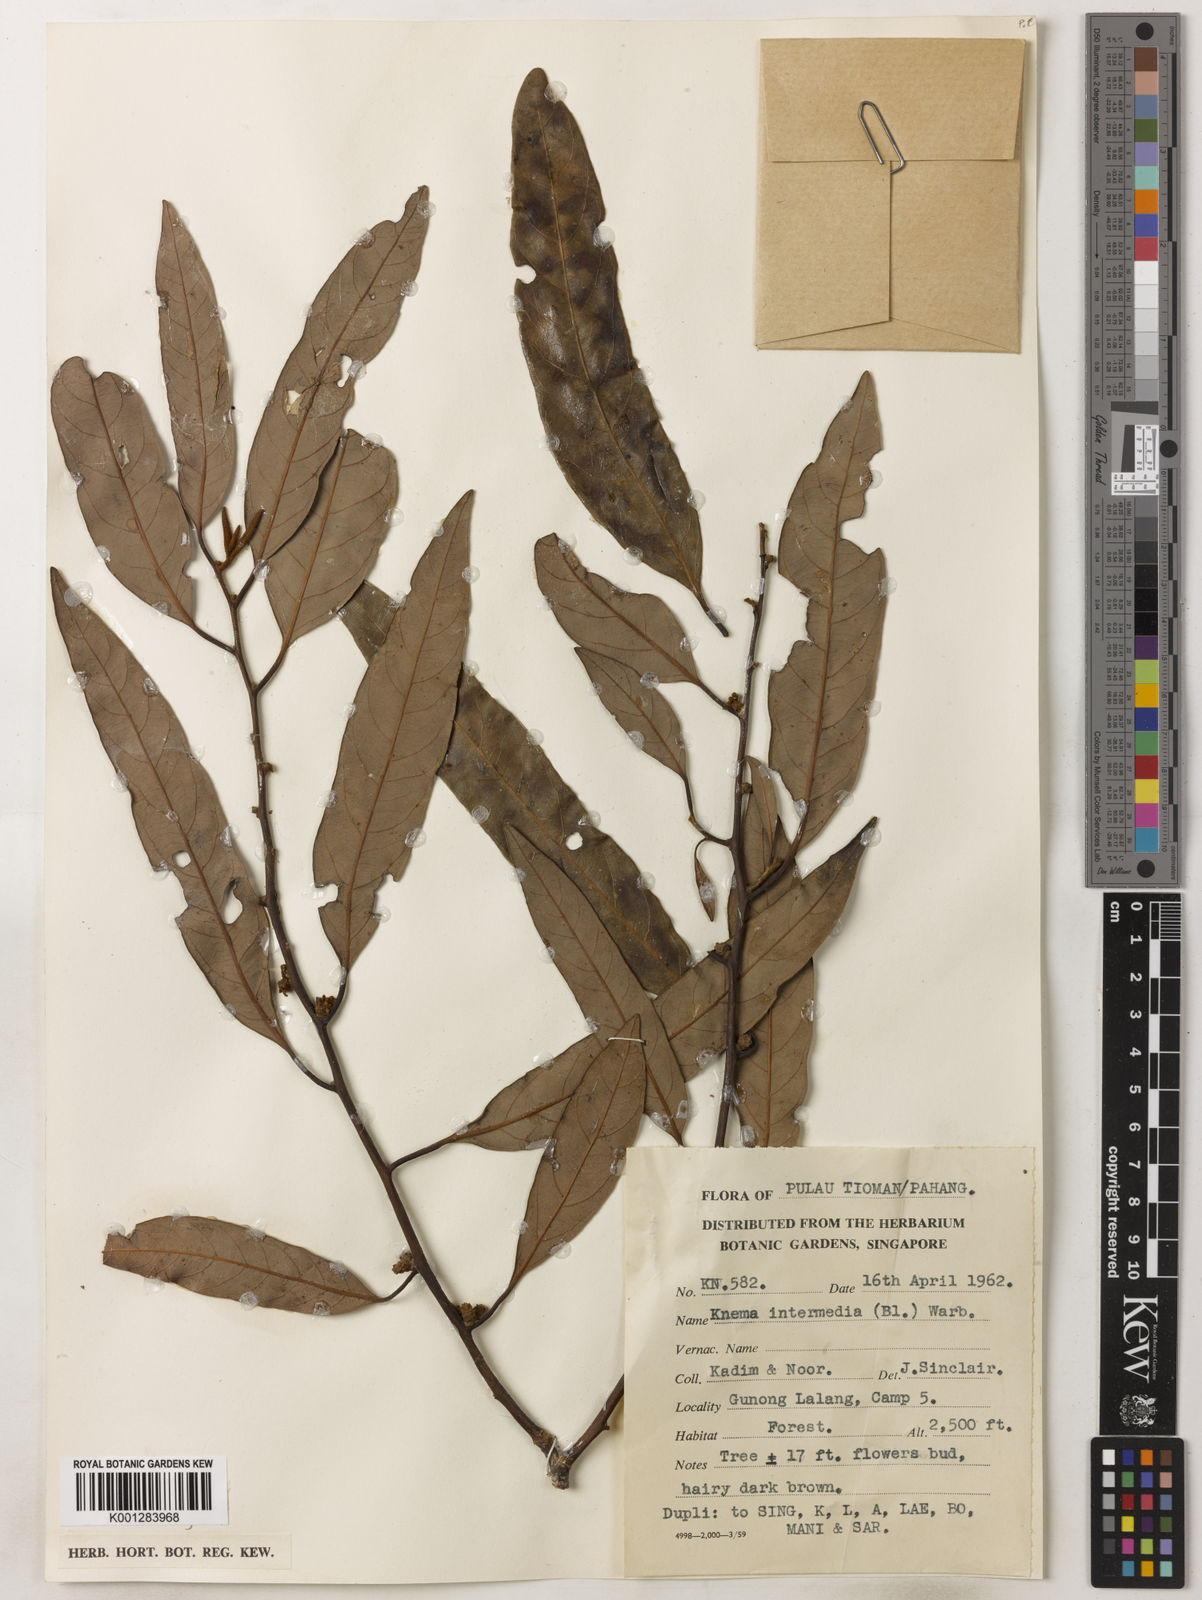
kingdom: Plantae
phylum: Tracheophyta
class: Magnoliopsida
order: Magnoliales
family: Myristicaceae
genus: Knema
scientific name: Knema intermedia
